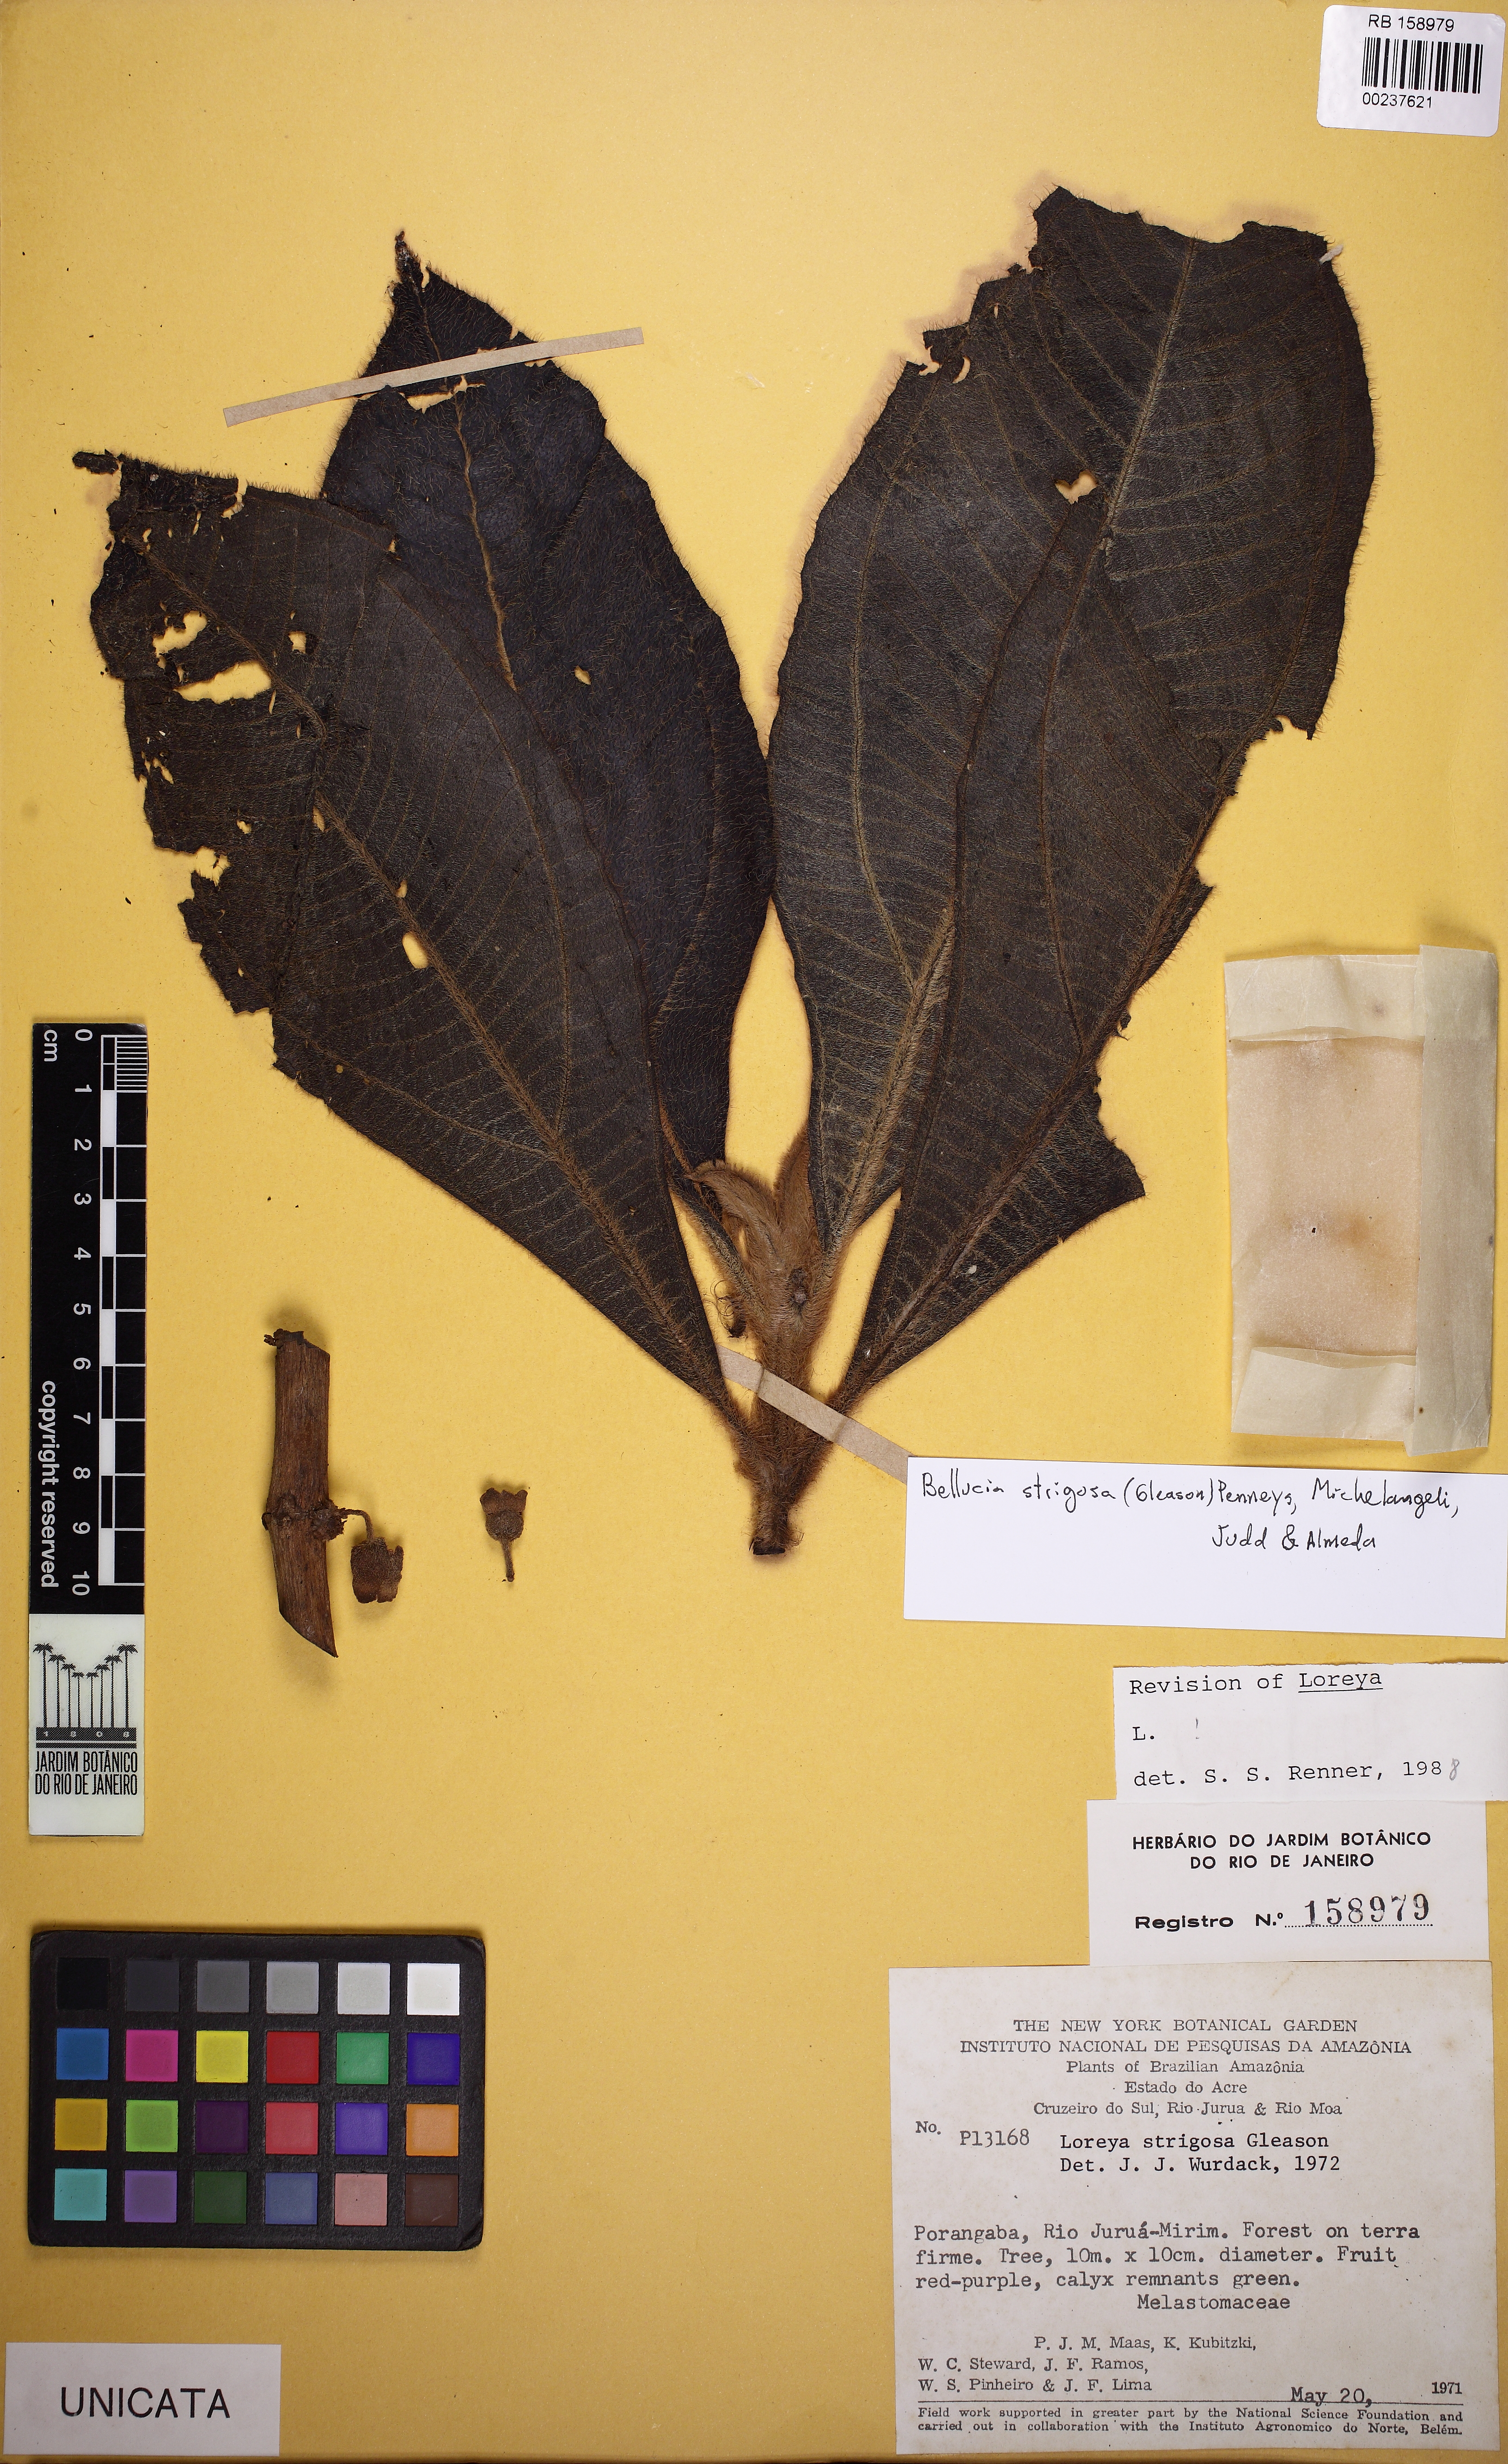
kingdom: Plantae
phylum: Tracheophyta
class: Magnoliopsida
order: Myrtales
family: Melastomataceae
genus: Bellucia
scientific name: Bellucia strigosa
